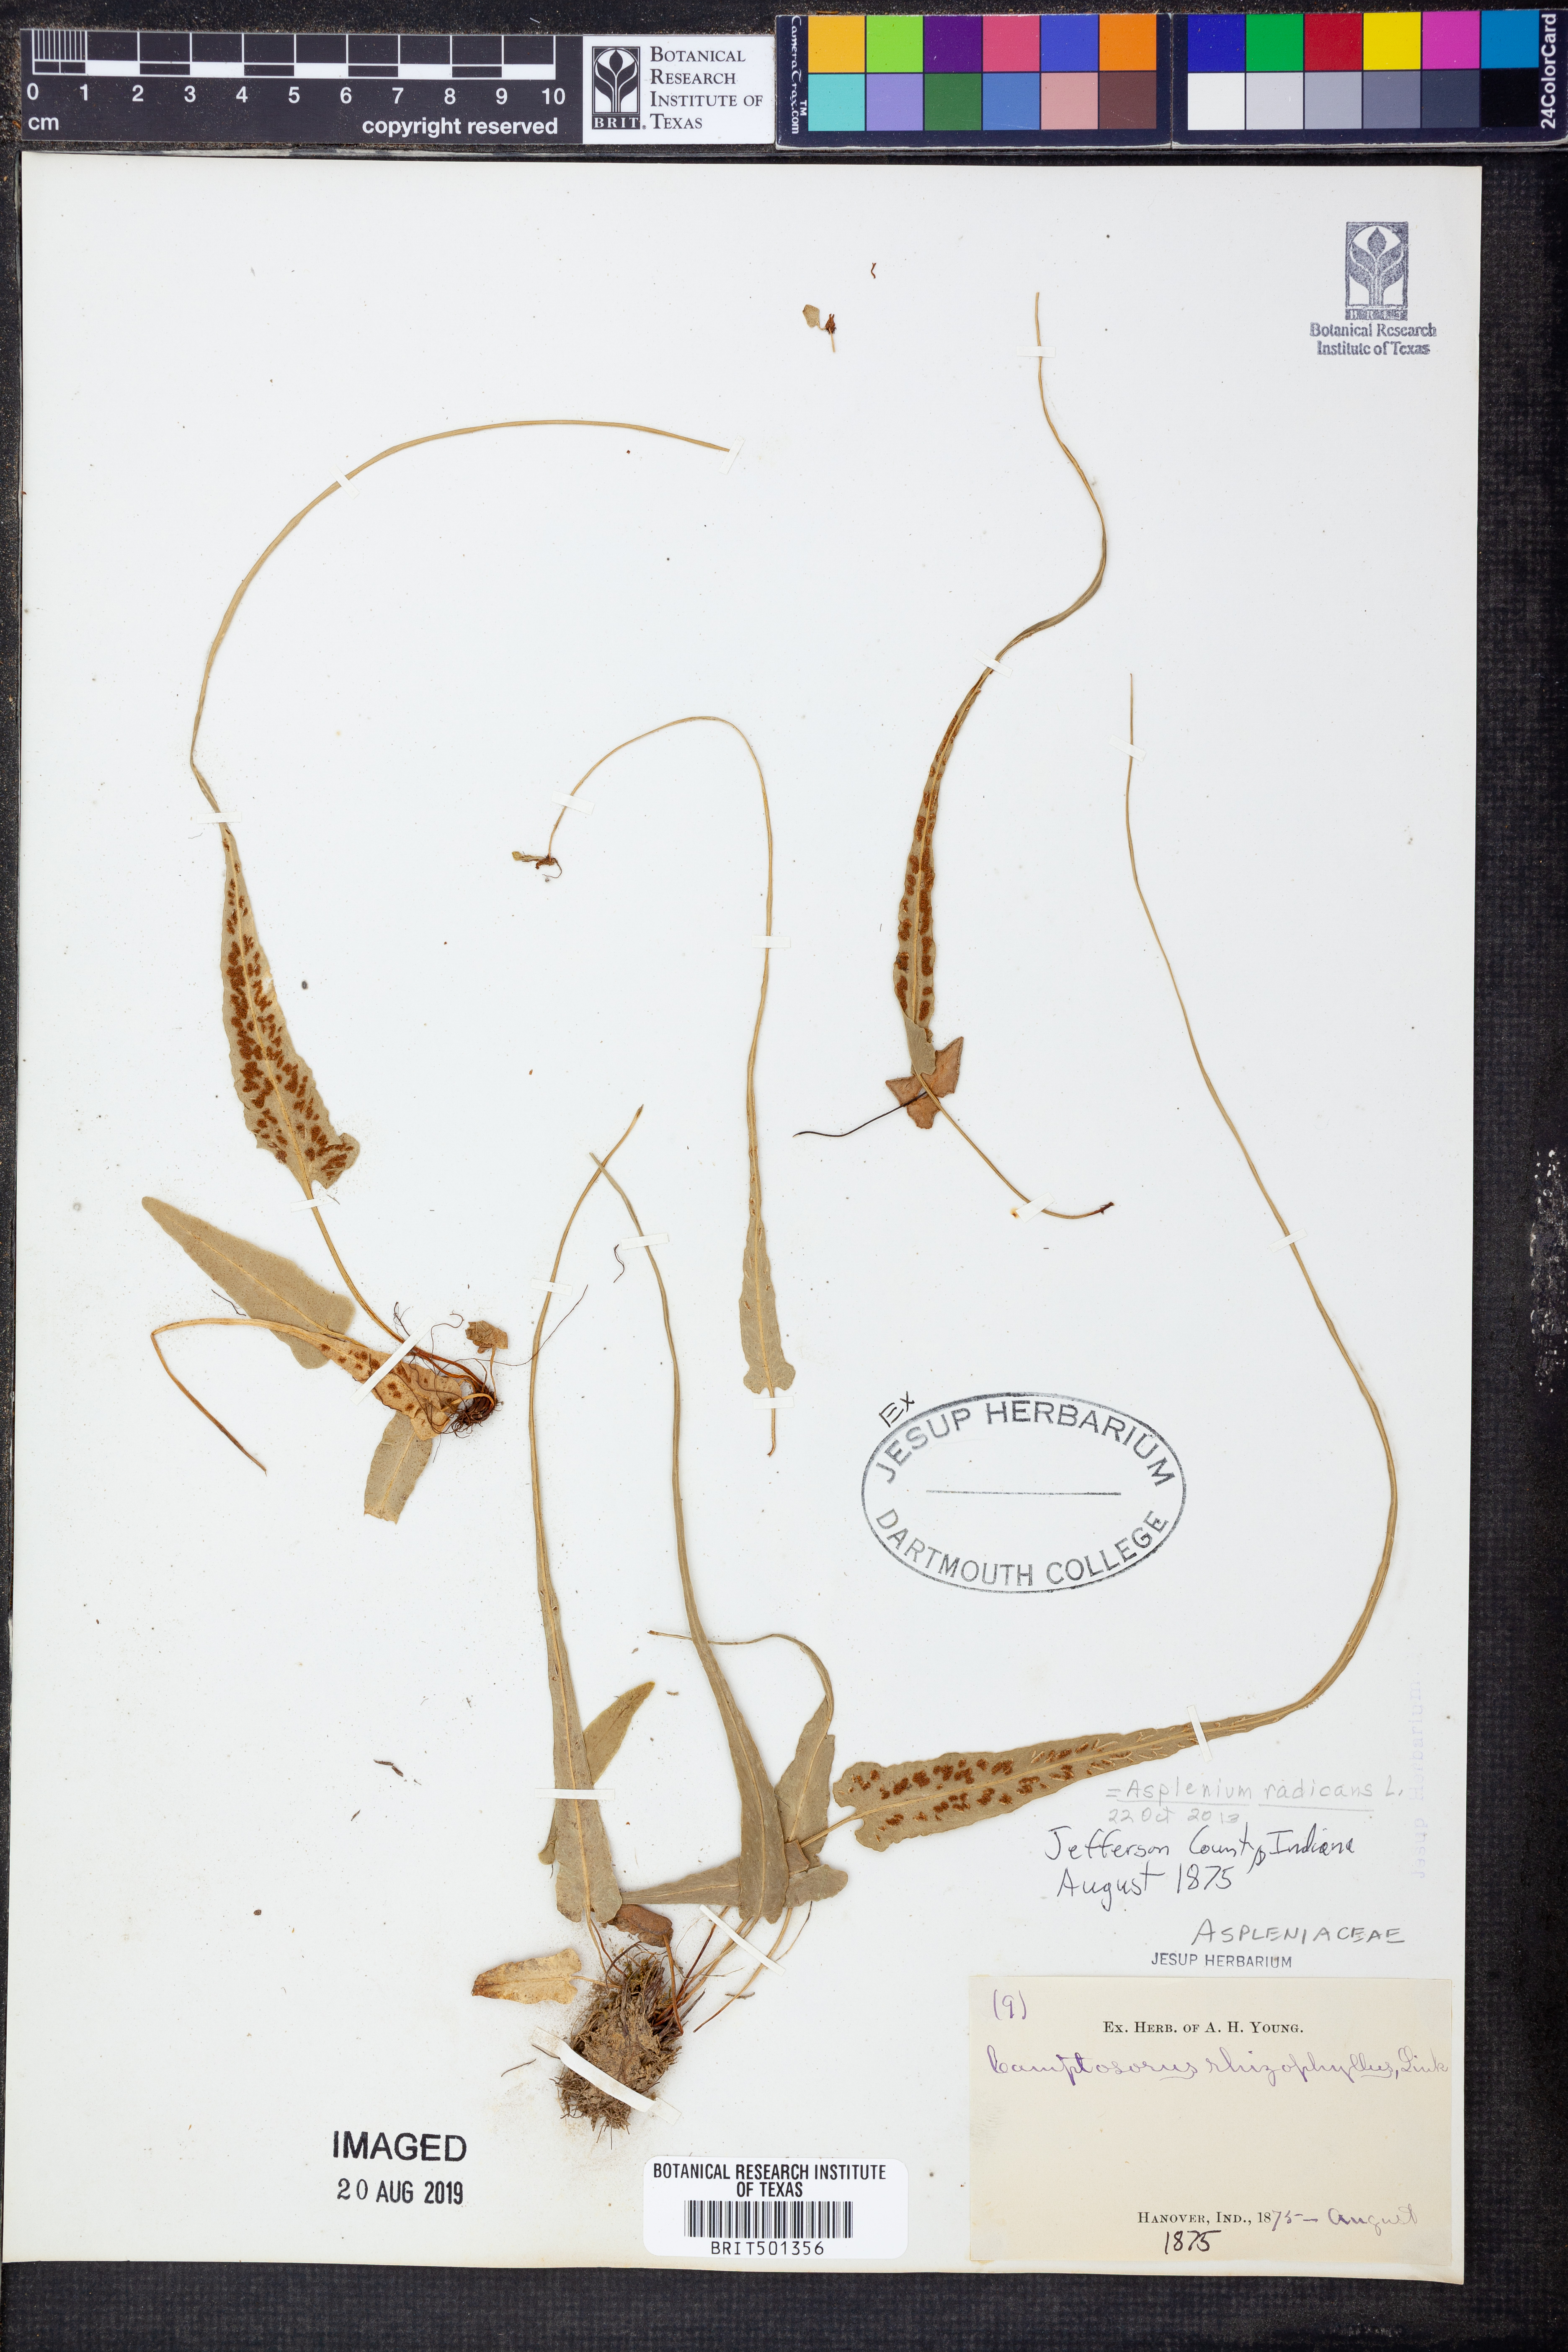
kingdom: Plantae
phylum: Tracheophyta
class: Polypodiopsida
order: Polypodiales
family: Aspleniaceae
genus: Asplenium
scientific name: Asplenium radicans
